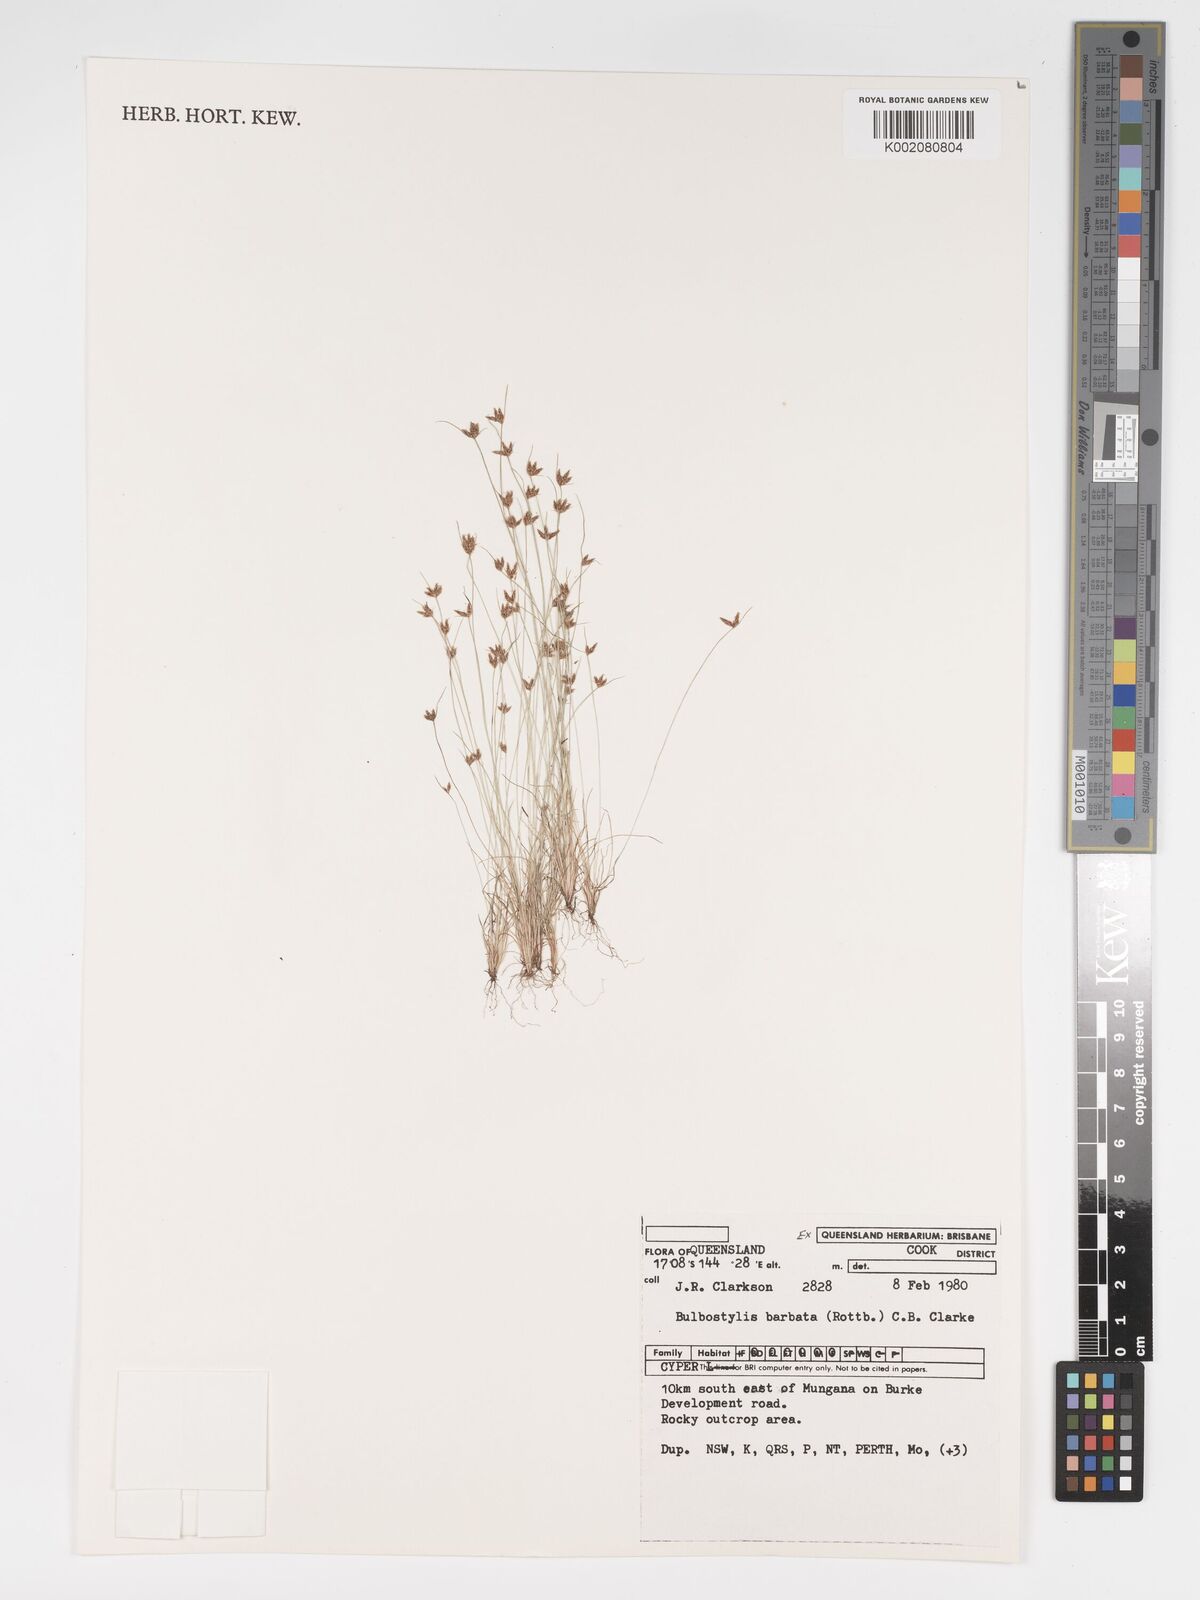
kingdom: Plantae
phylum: Tracheophyta
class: Liliopsida
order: Poales
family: Cyperaceae
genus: Bulbostylis
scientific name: Bulbostylis barbata
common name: Watergrass
